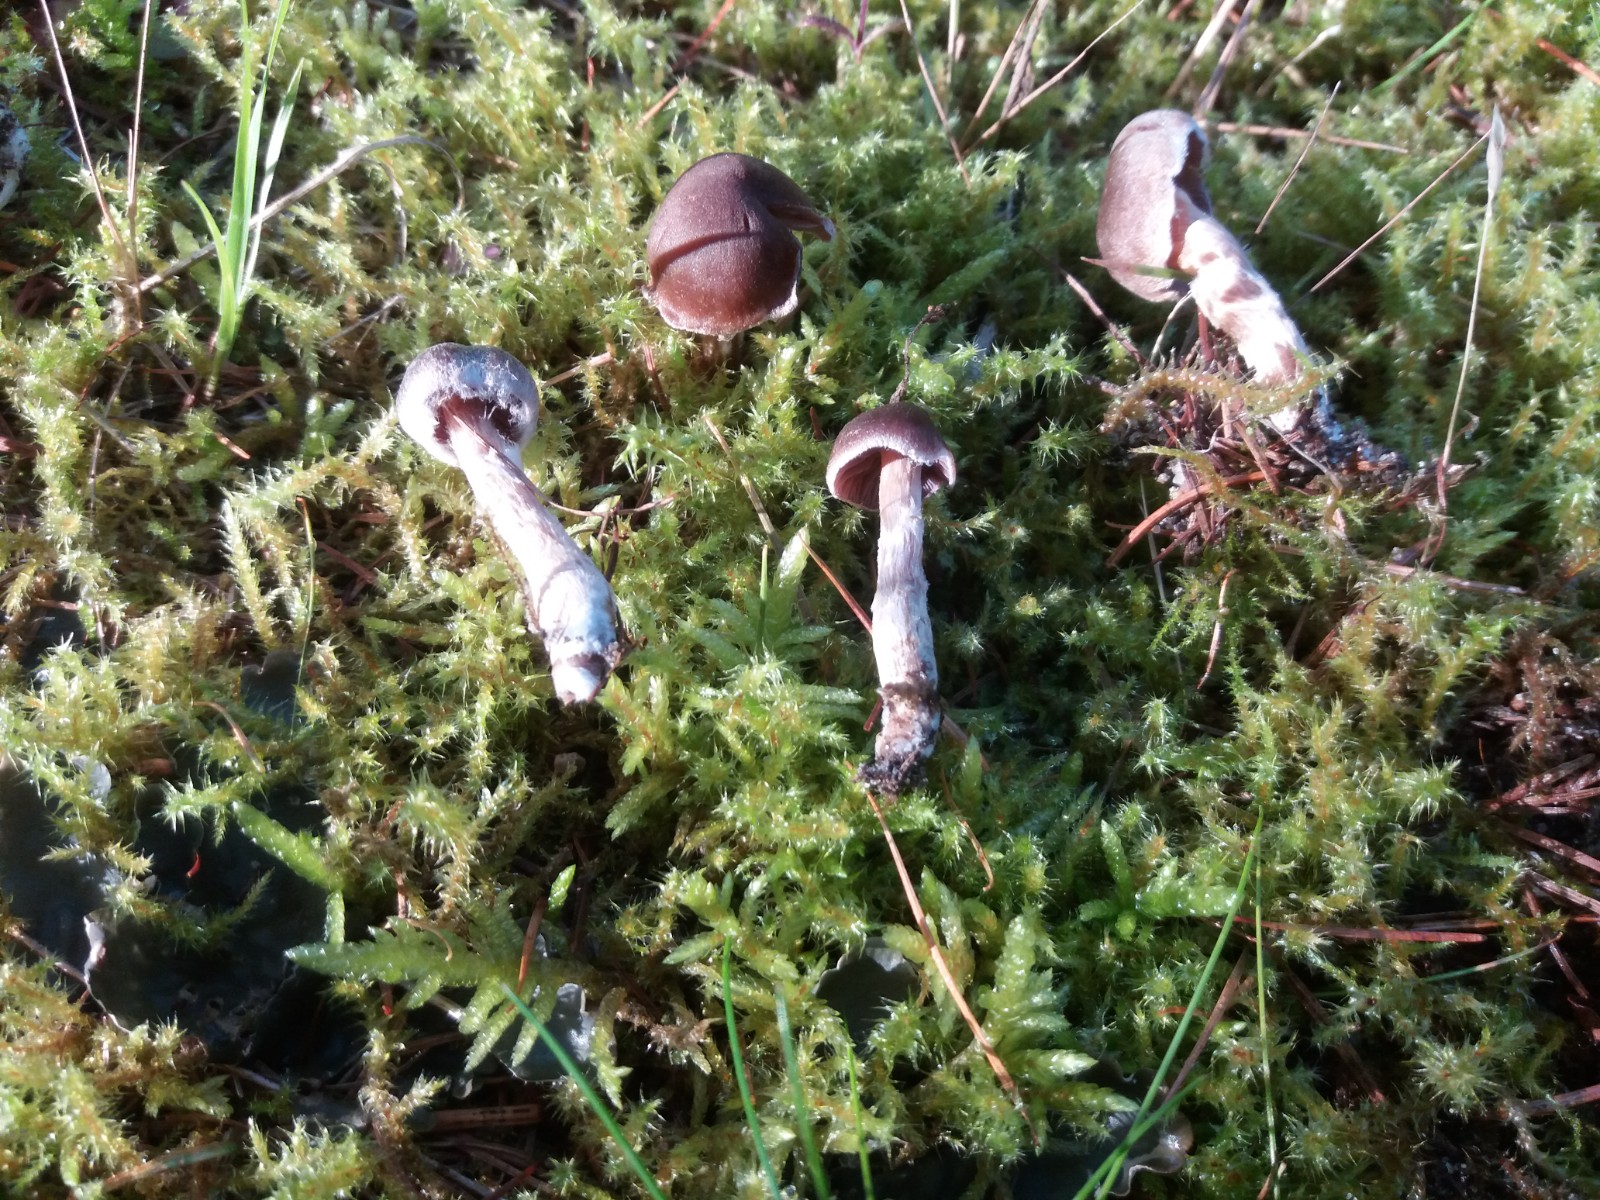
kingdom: Fungi
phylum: Basidiomycota
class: Agaricomycetes
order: Agaricales
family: Cortinariaceae
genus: Cortinarius
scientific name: Cortinarius
